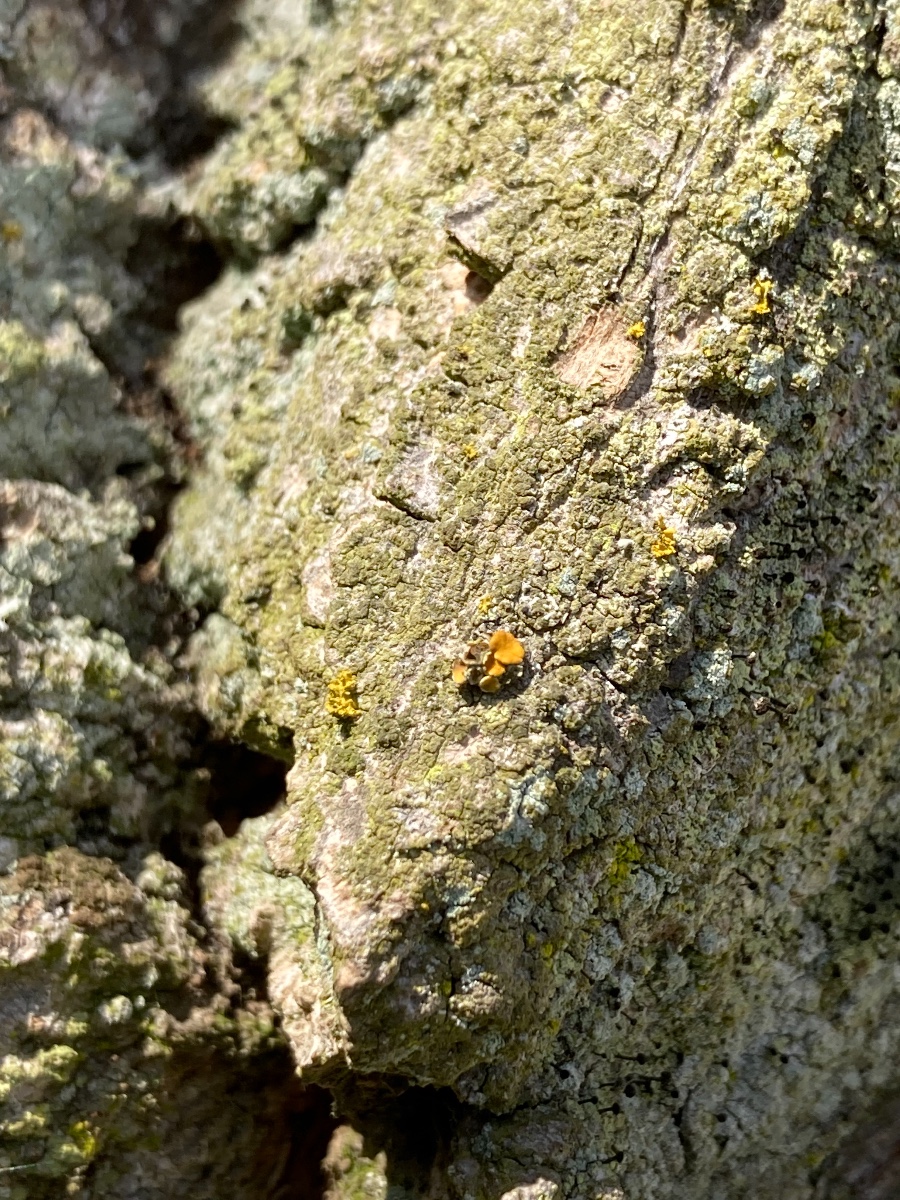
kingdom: Fungi
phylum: Ascomycota
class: Lecanoromycetes
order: Teloschistales
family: Teloschistaceae
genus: Polycauliona
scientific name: Polycauliona polycarpa
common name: mangefrugtet orangelav
